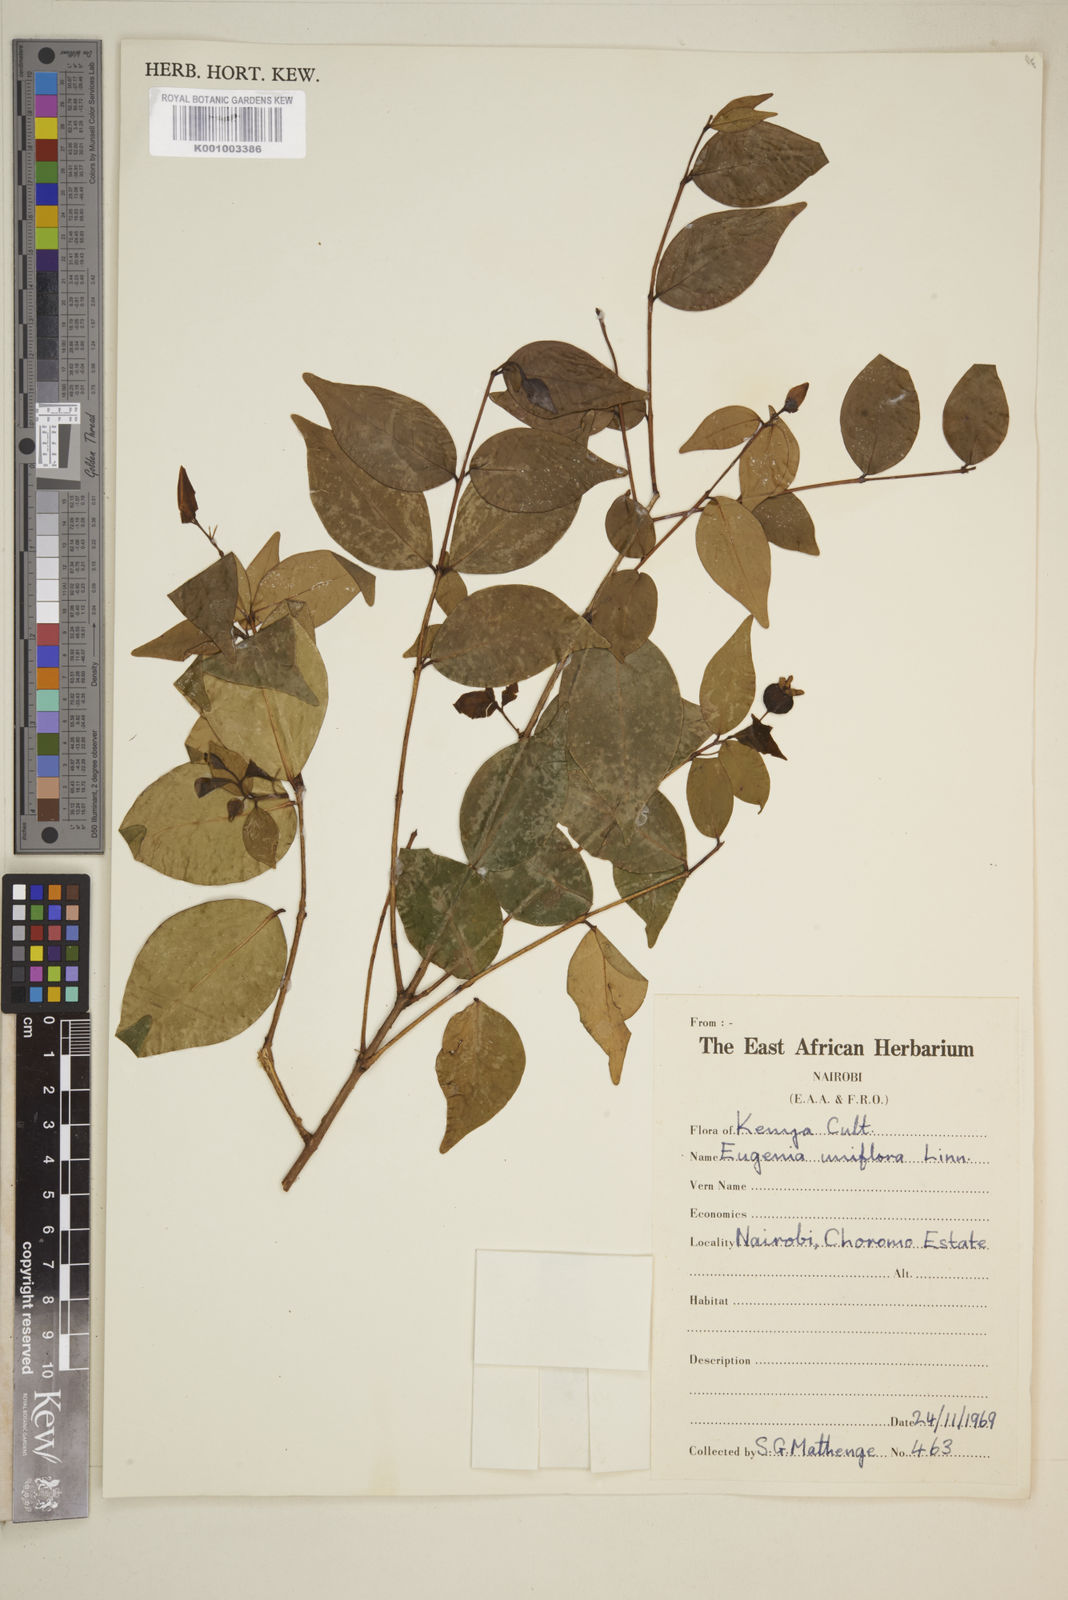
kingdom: Plantae
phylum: Tracheophyta
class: Magnoliopsida
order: Myrtales
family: Myrtaceae
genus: Eugenia
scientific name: Eugenia uniflora
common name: Surinam cherry
